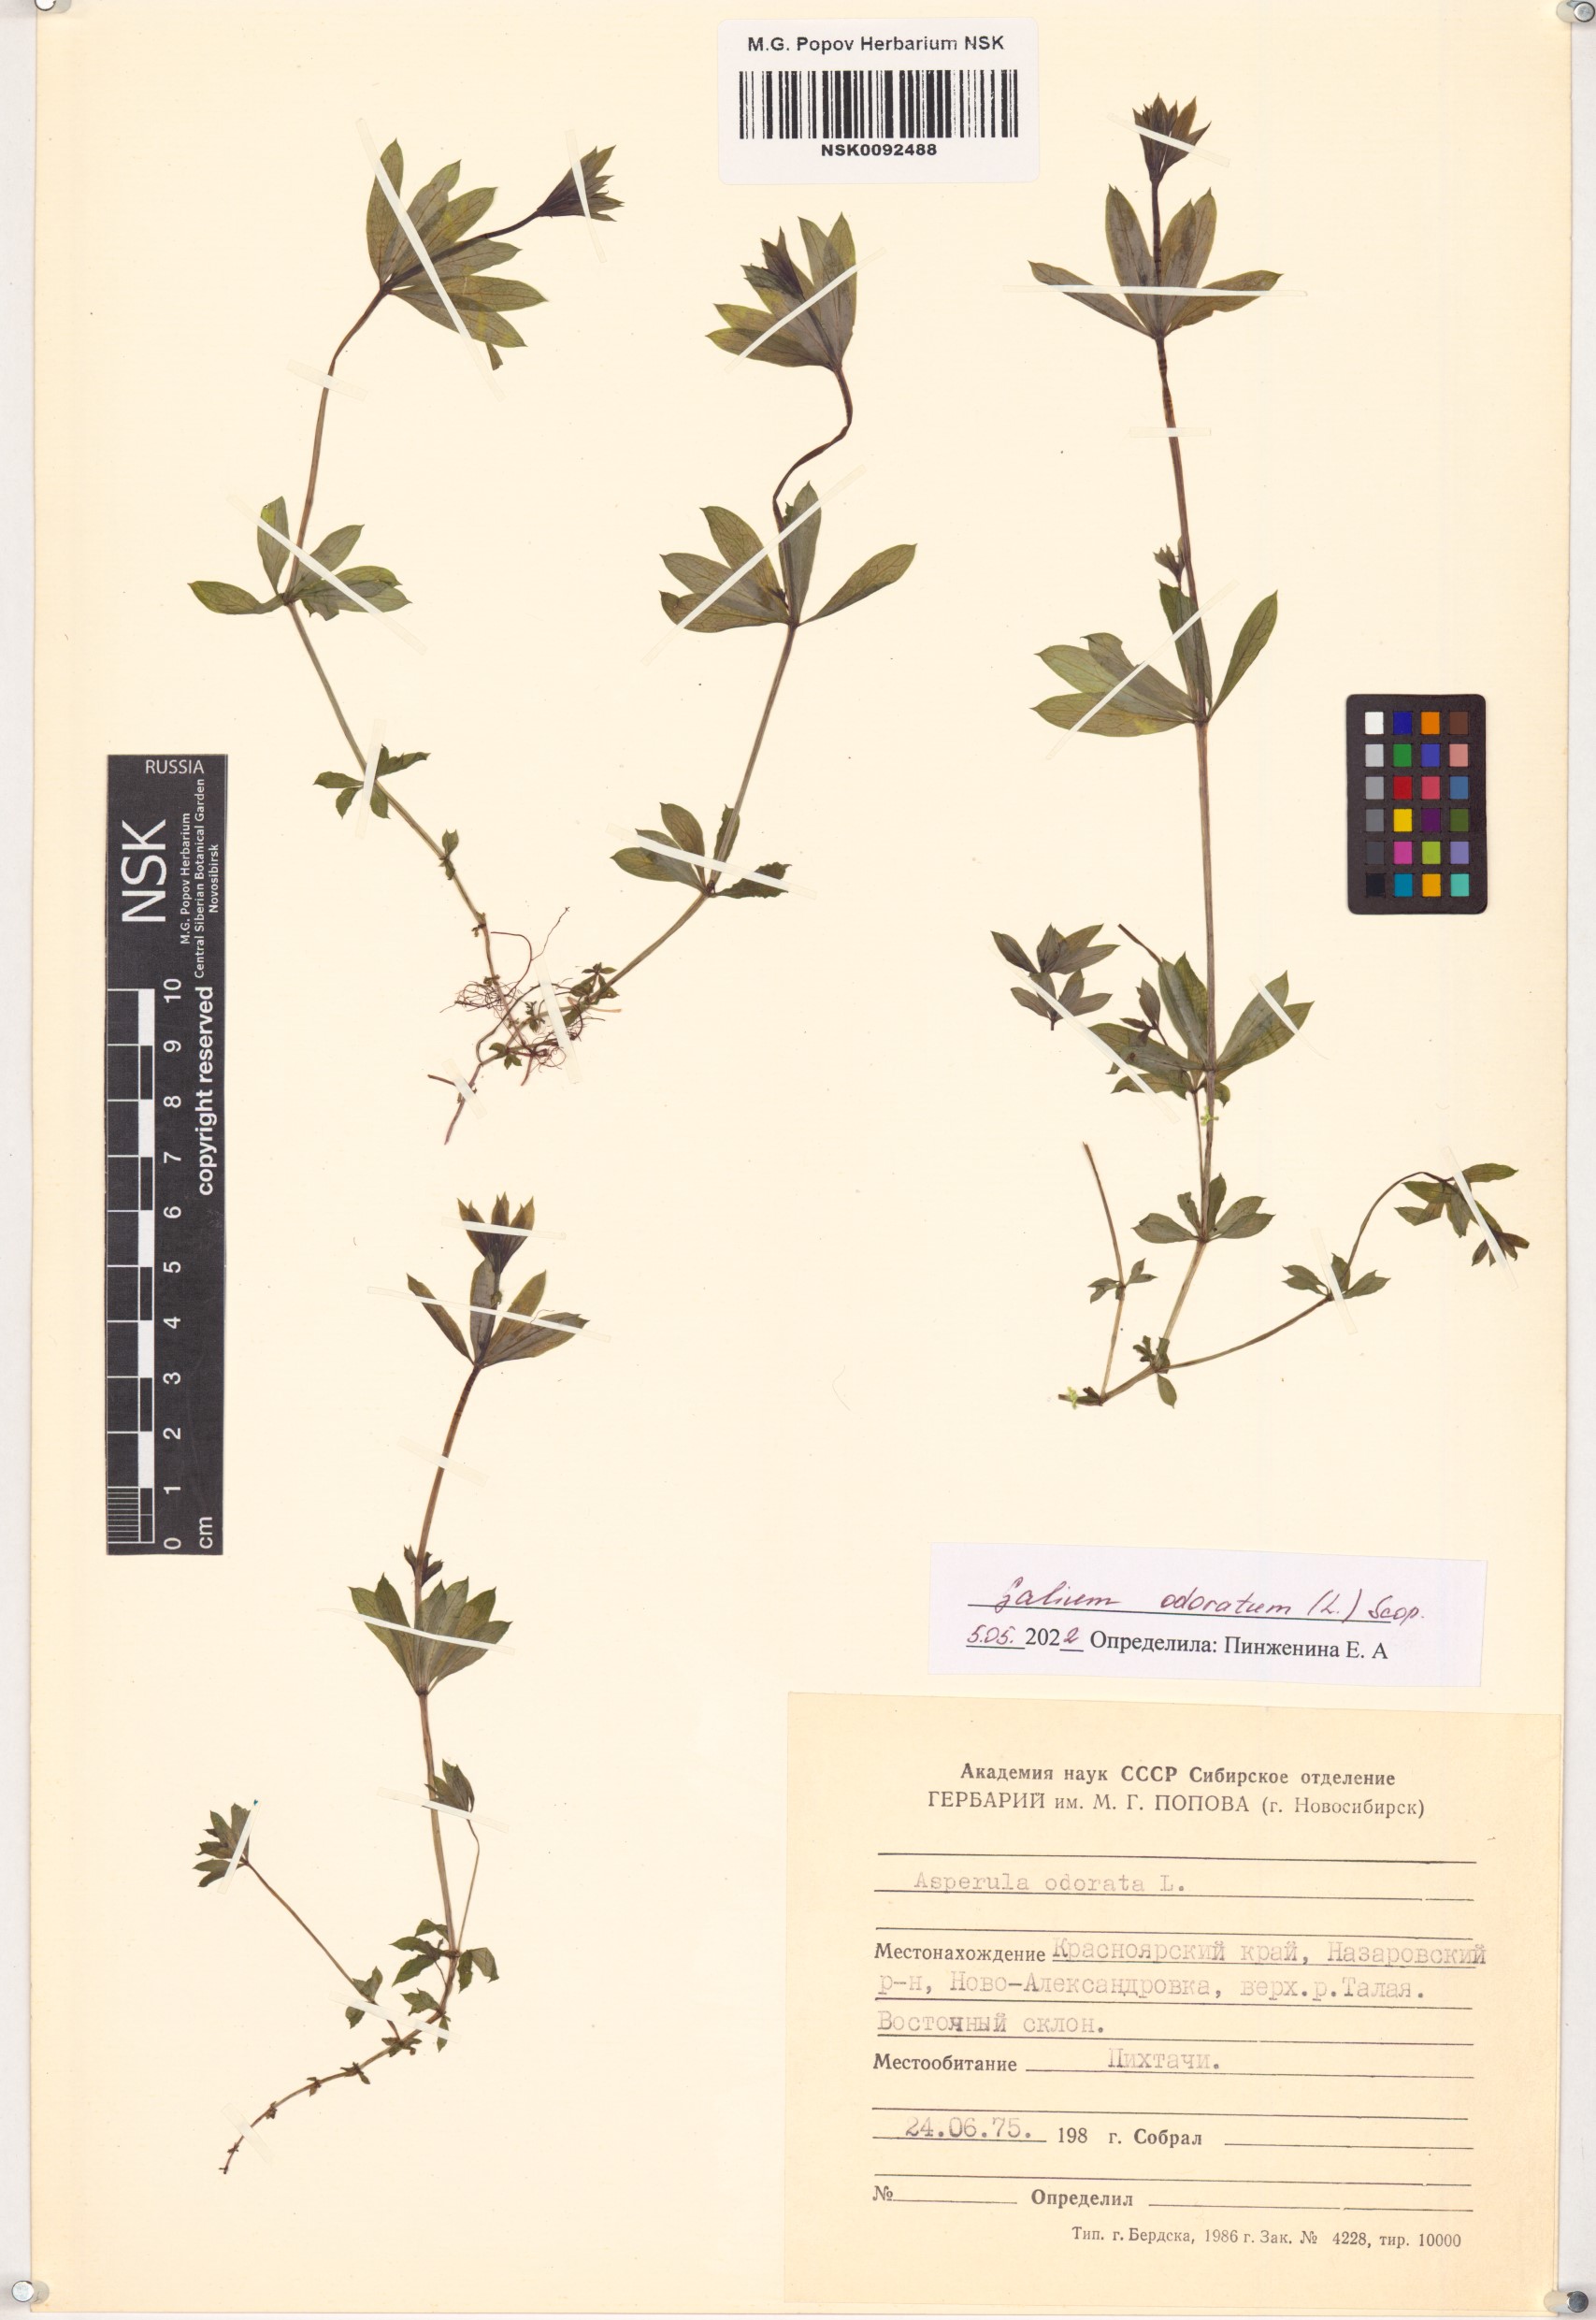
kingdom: Plantae
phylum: Tracheophyta
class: Magnoliopsida
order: Gentianales
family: Rubiaceae
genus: Galium
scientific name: Galium odoratum
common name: Sweet woodruff
